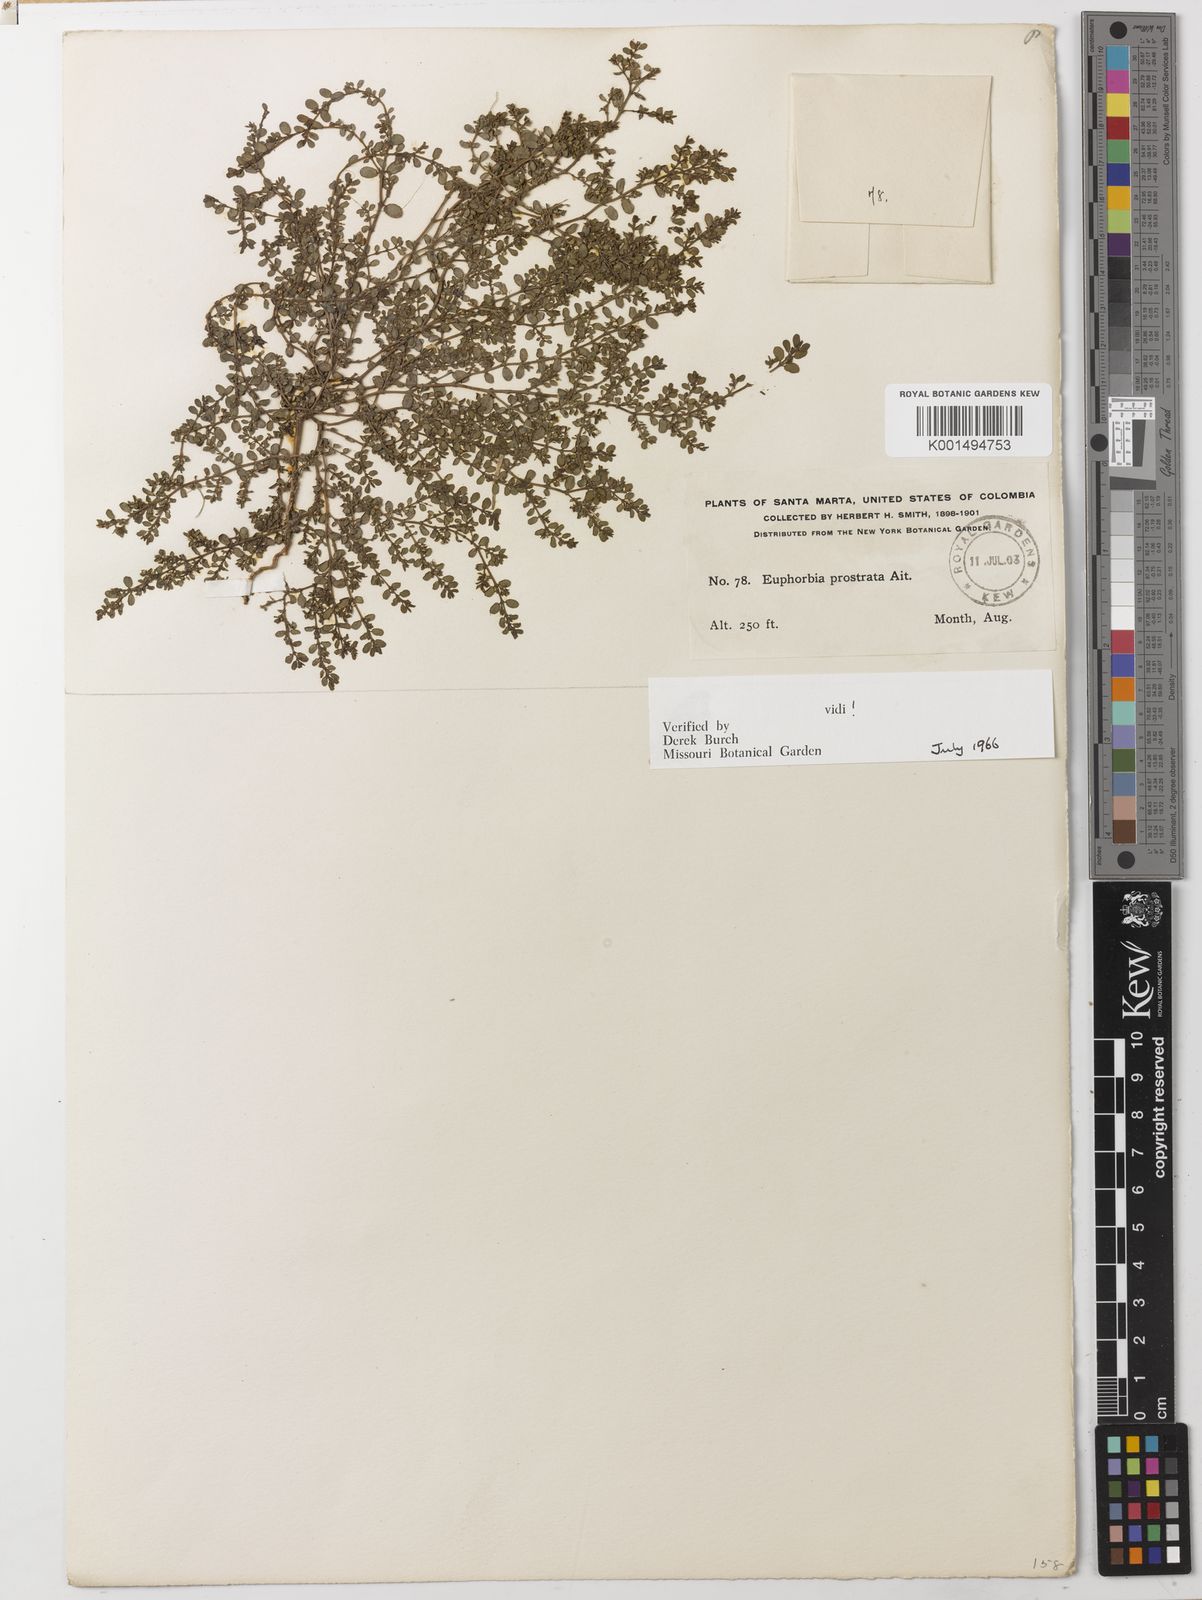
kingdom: Plantae
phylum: Tracheophyta
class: Magnoliopsida
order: Malpighiales
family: Euphorbiaceae
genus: Euphorbia
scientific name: Euphorbia prostrata
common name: Prostrate sandmat
